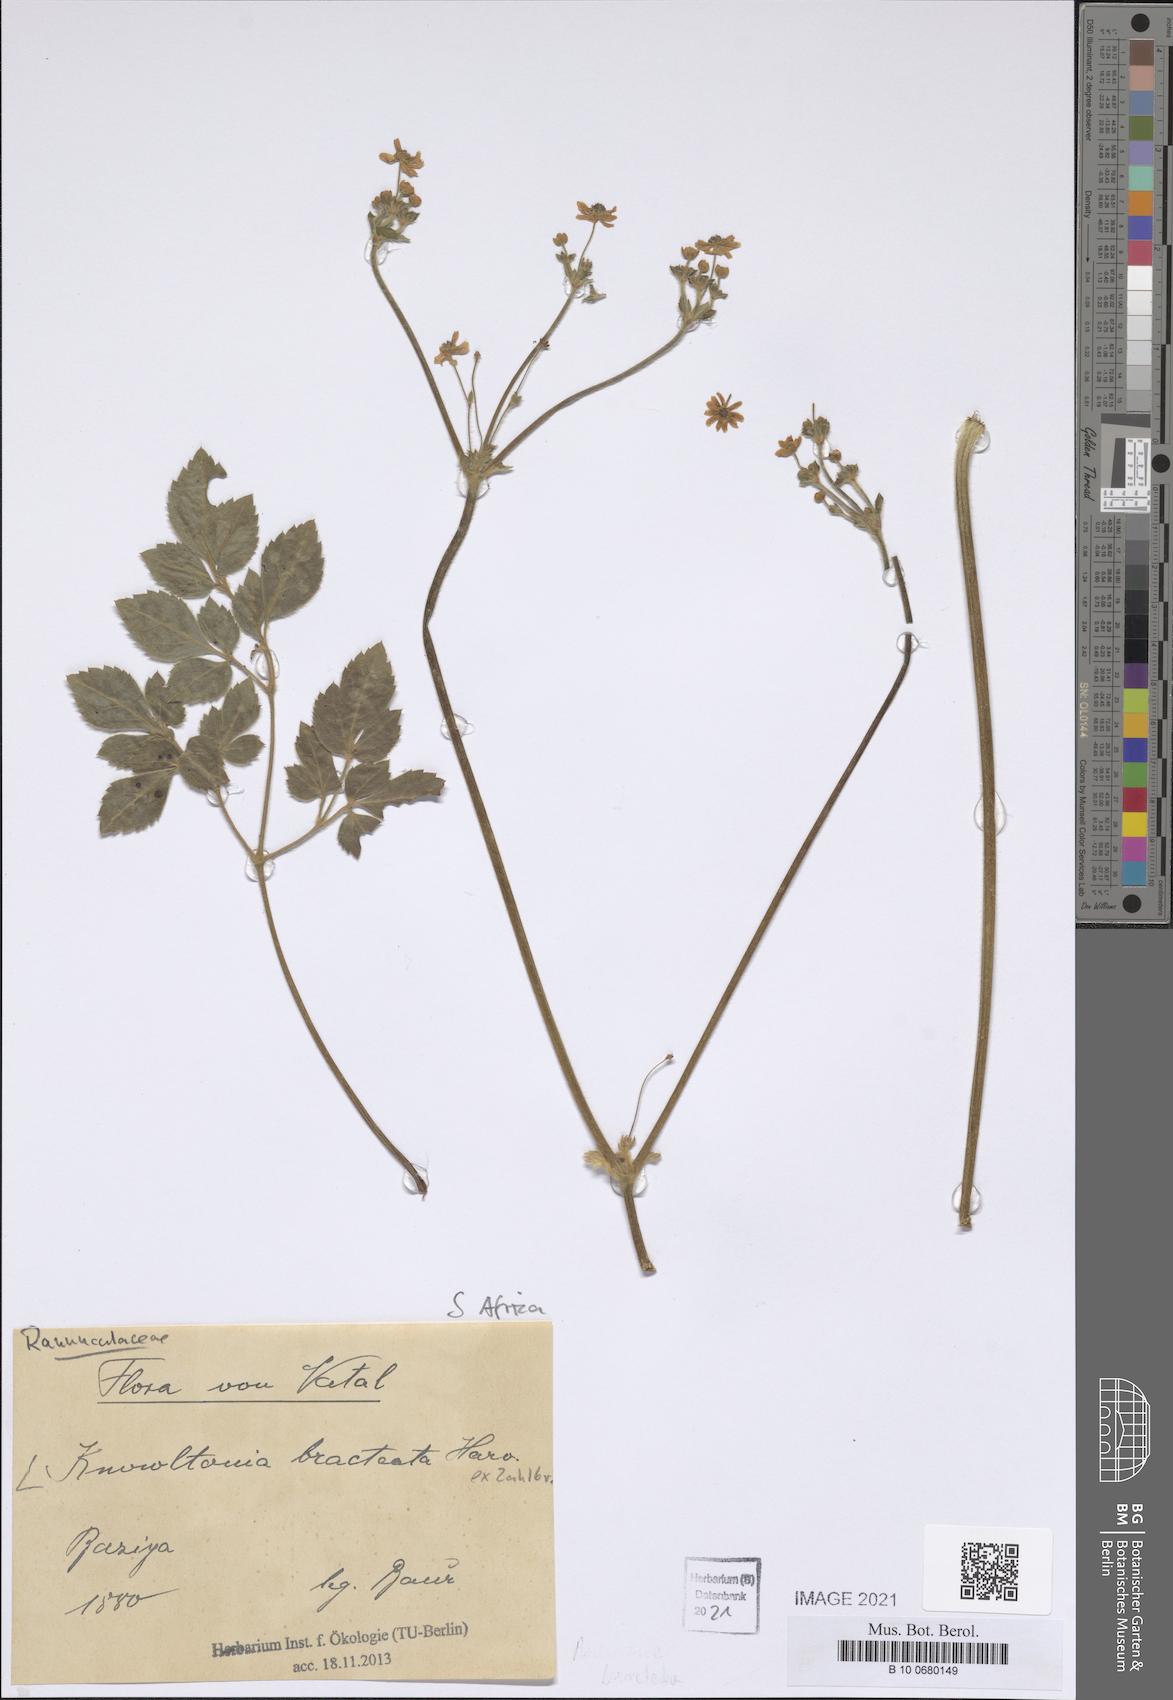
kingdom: Plantae
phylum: Tracheophyta
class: Magnoliopsida
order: Ranunculales
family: Ranunculaceae
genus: Knowltonia
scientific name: Knowltonia bracteata
